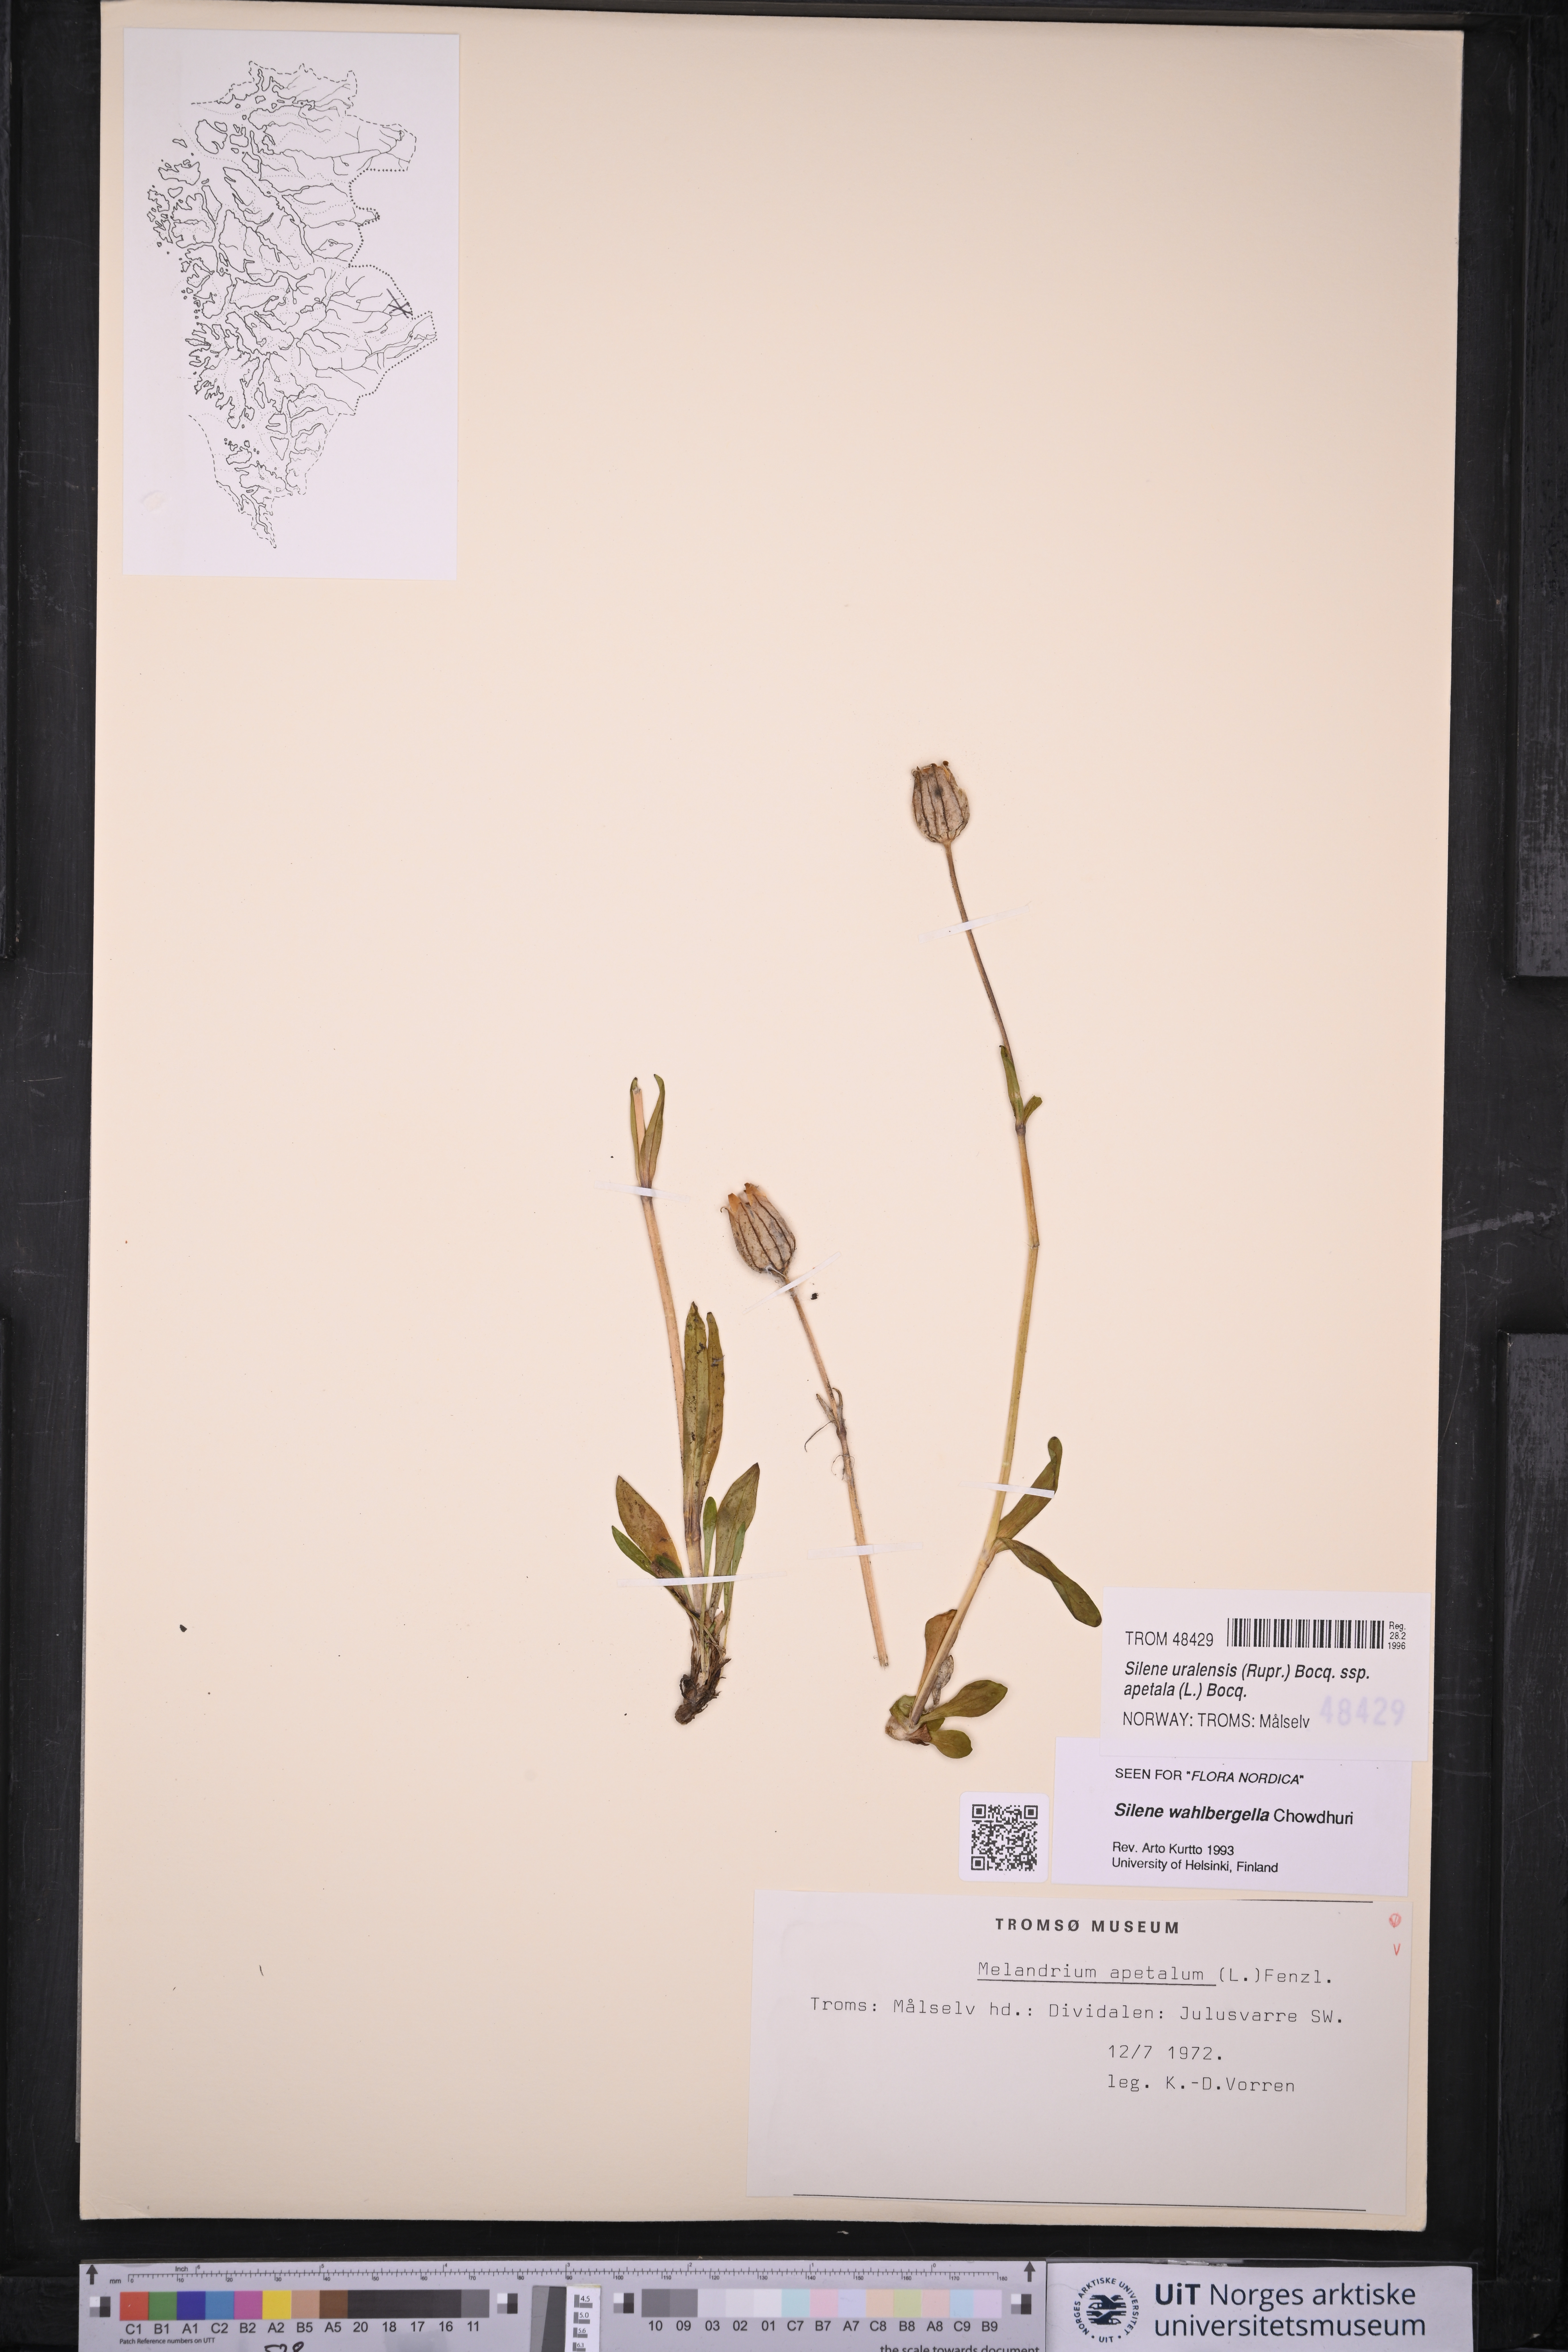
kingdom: Plantae
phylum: Tracheophyta
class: Magnoliopsida
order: Caryophyllales
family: Caryophyllaceae
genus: Silene
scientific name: Silene wahlbergella
